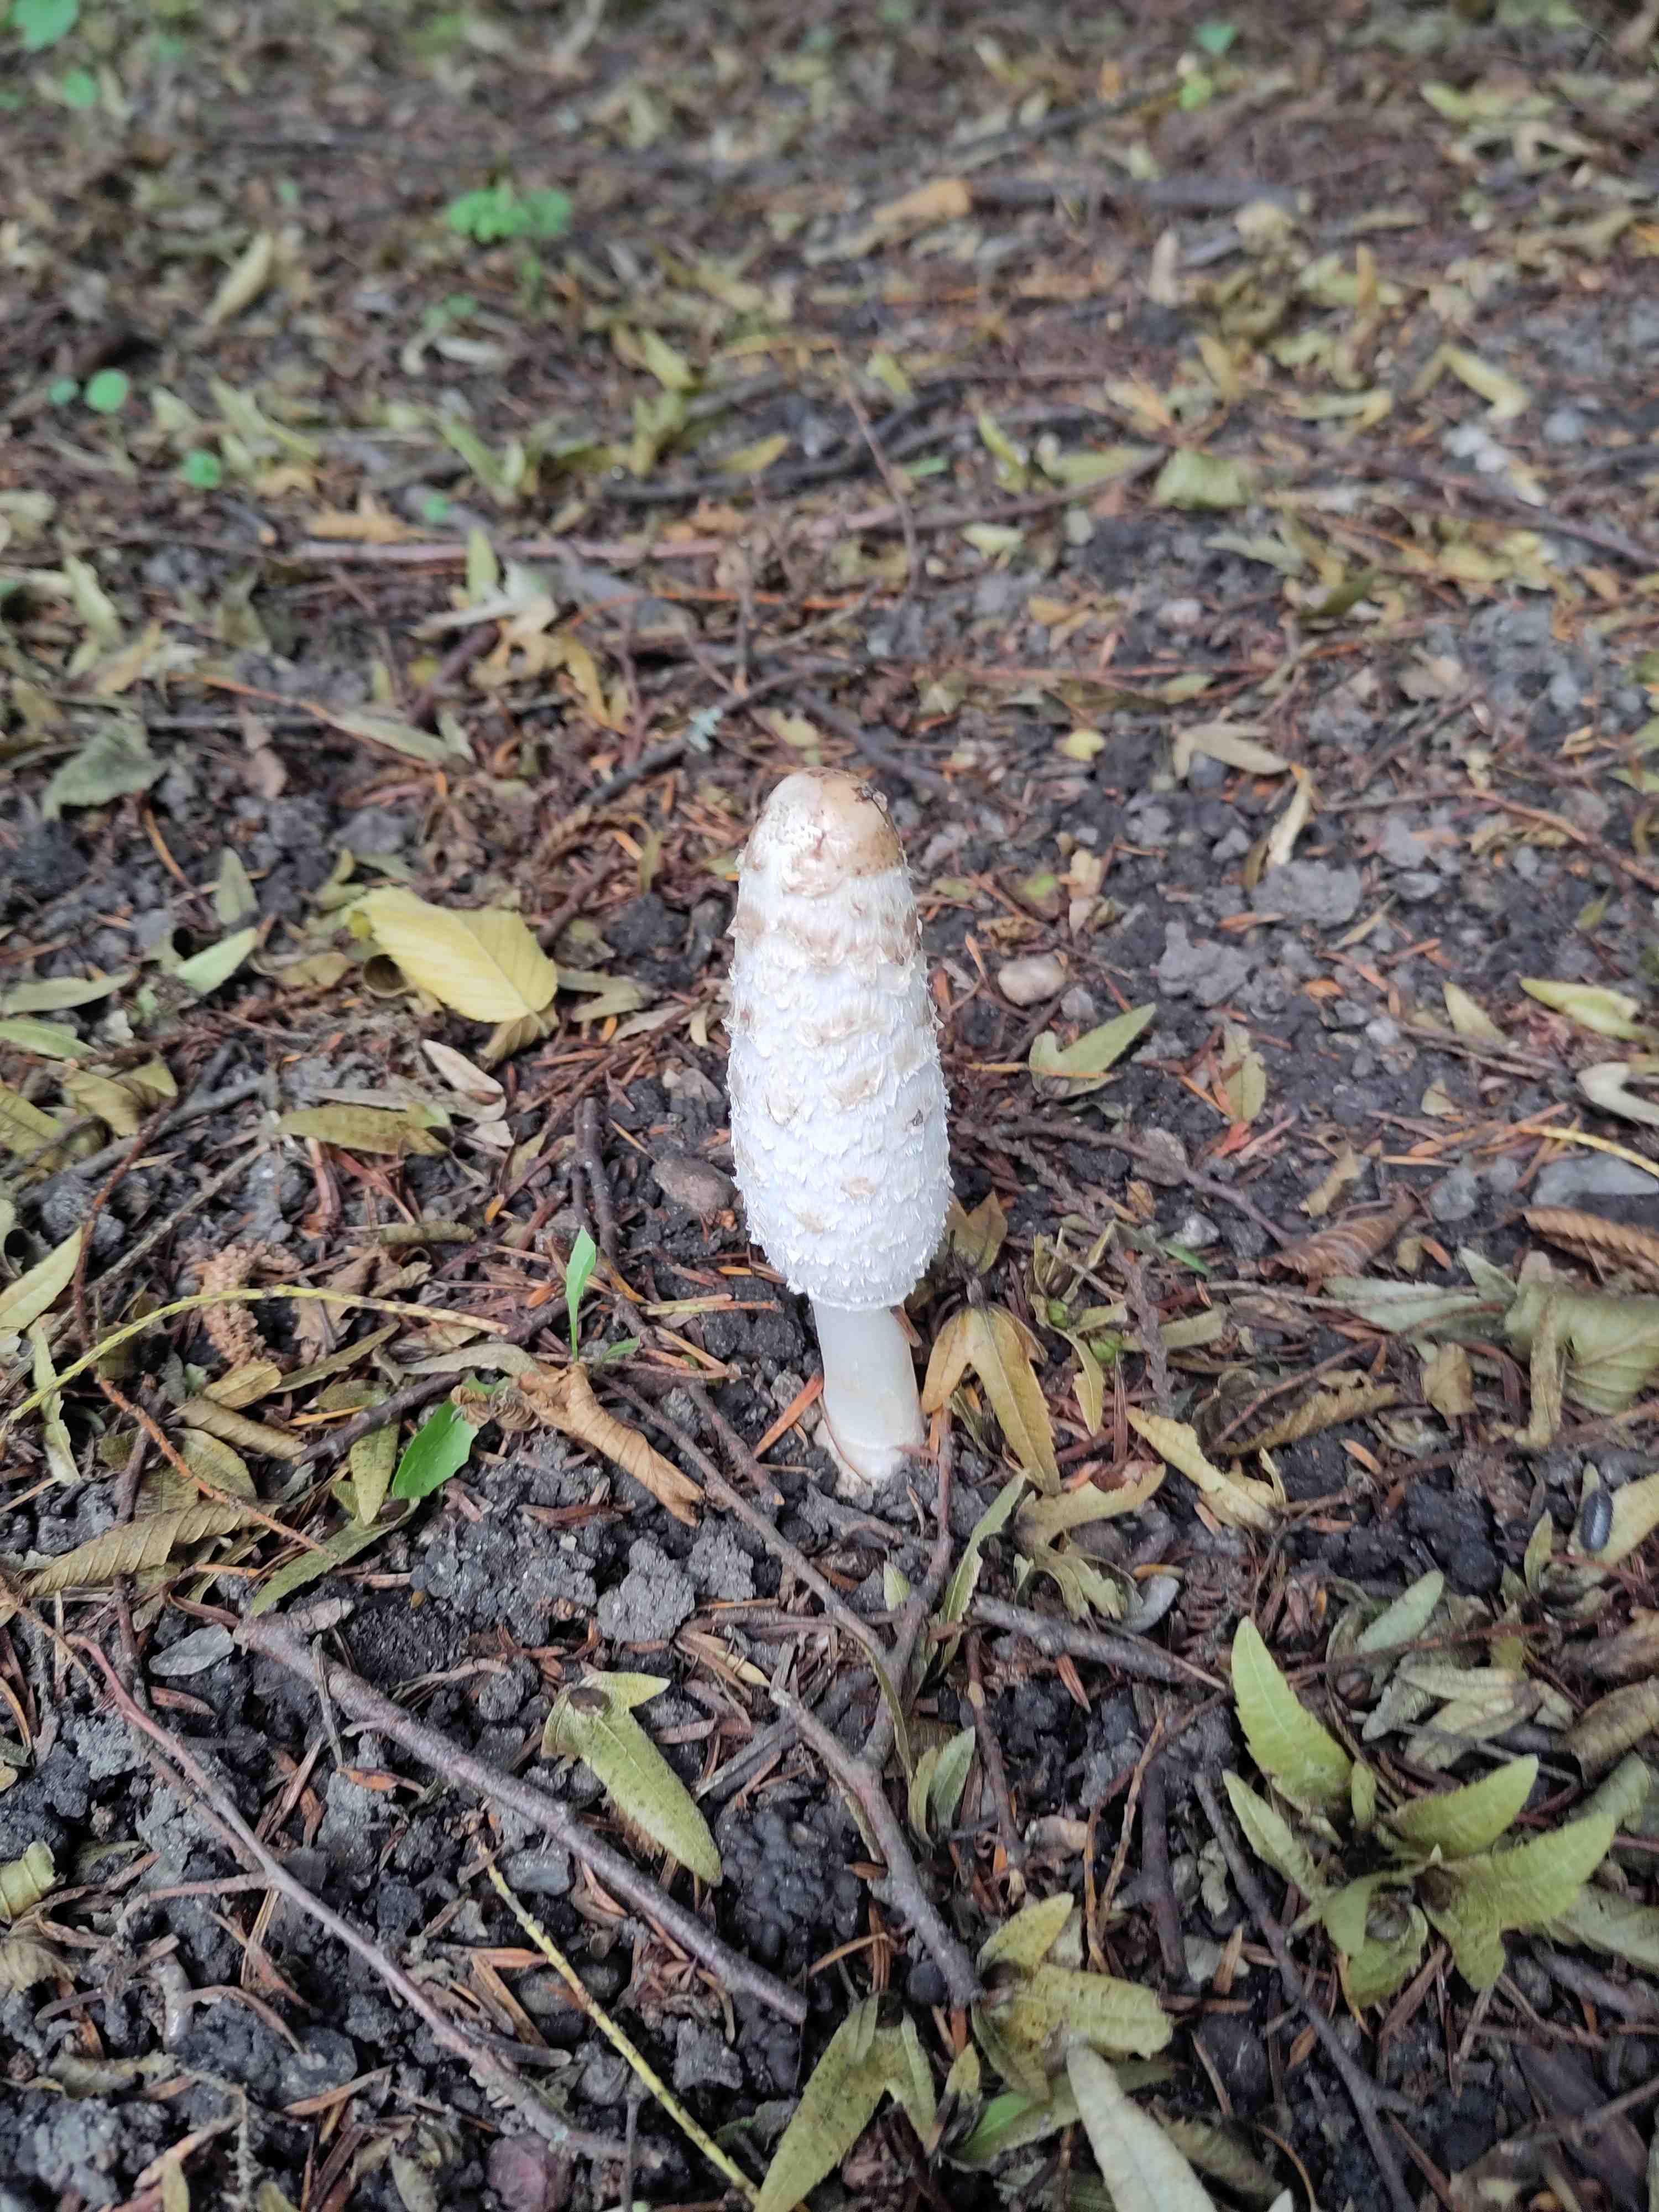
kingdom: Fungi
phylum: Basidiomycota
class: Agaricomycetes
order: Agaricales
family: Agaricaceae
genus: Coprinus
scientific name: Coprinus comatus
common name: stor parykhat
